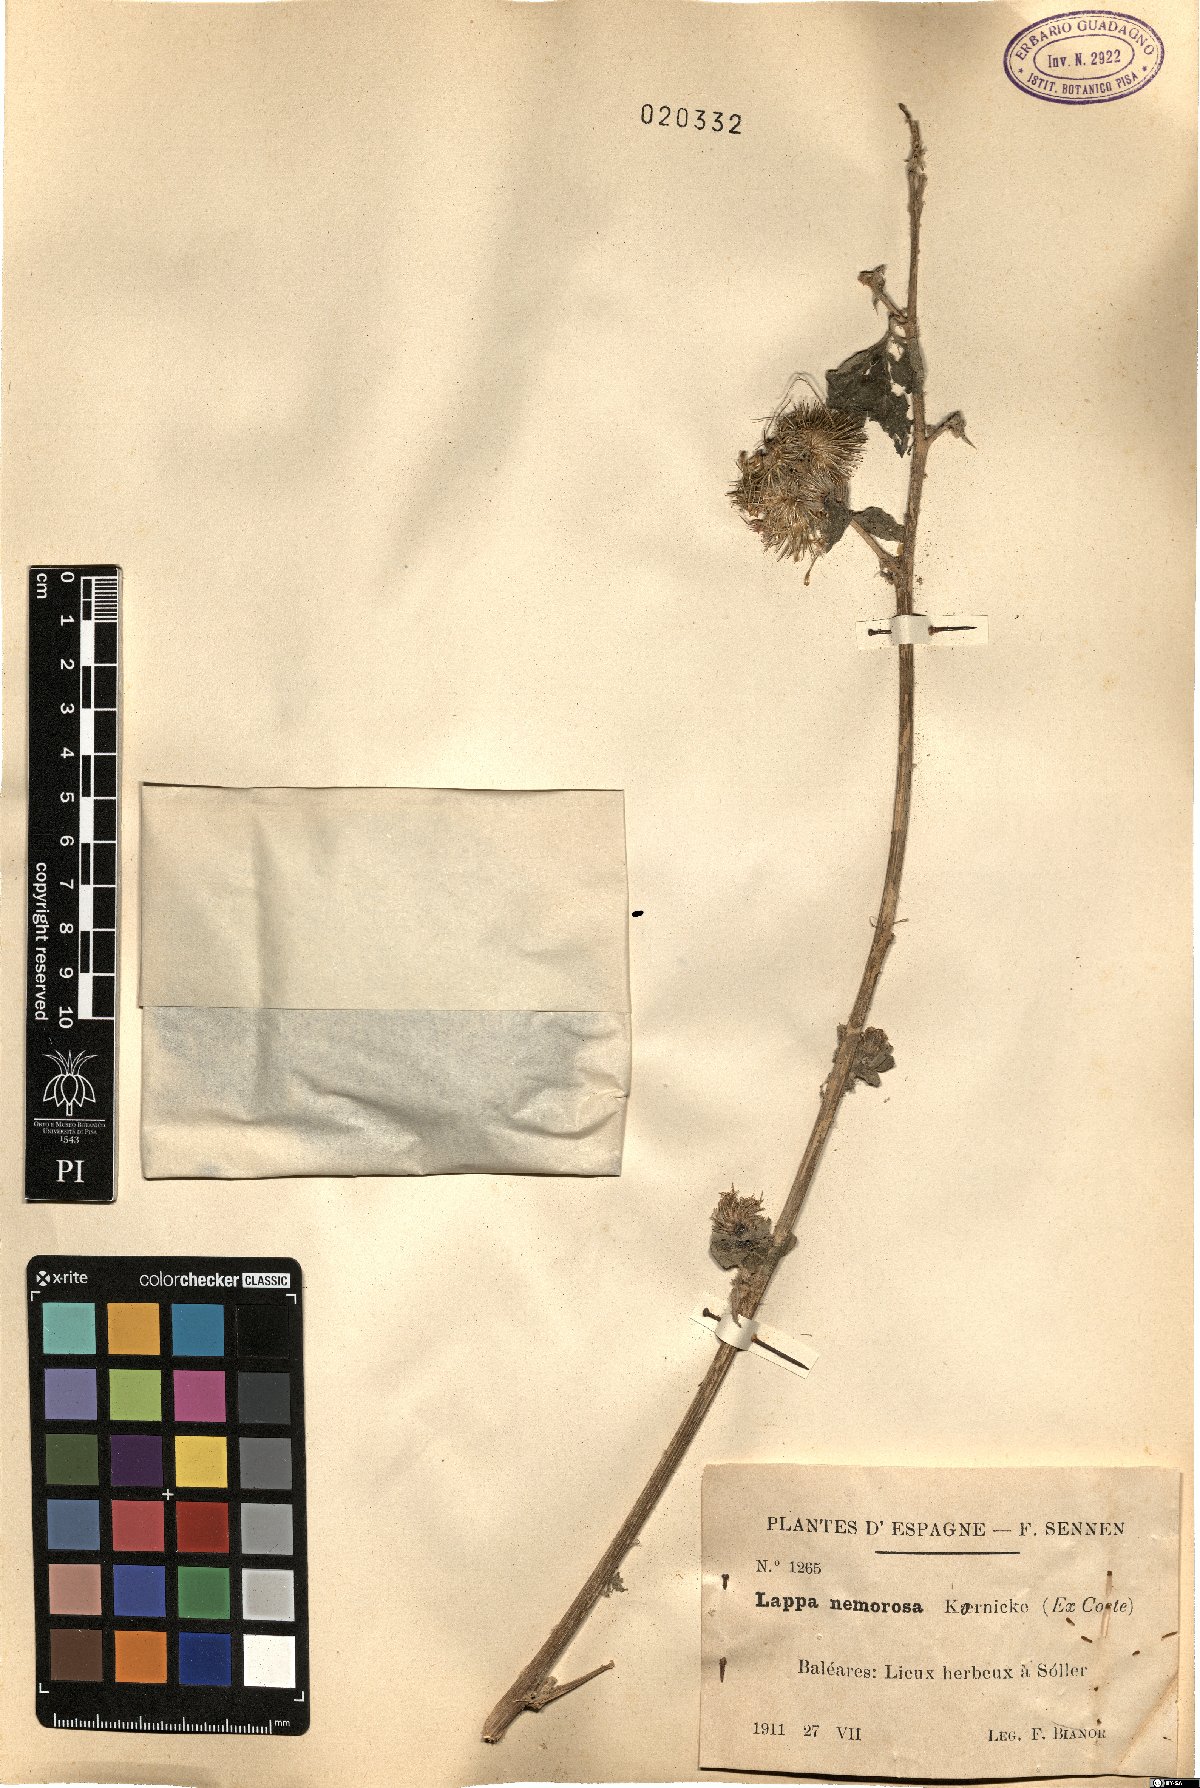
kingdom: Plantae
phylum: Tracheophyta
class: Magnoliopsida
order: Asterales
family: Asteraceae
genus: Arctium
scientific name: Arctium
